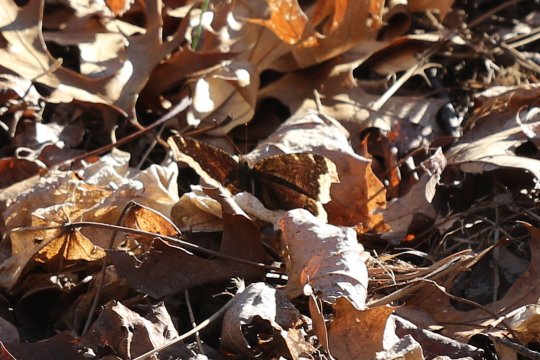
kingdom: Animalia
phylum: Arthropoda
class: Insecta
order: Lepidoptera
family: Nymphalidae
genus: Nymphalis
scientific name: Nymphalis antiopa
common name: Mourning Cloak
